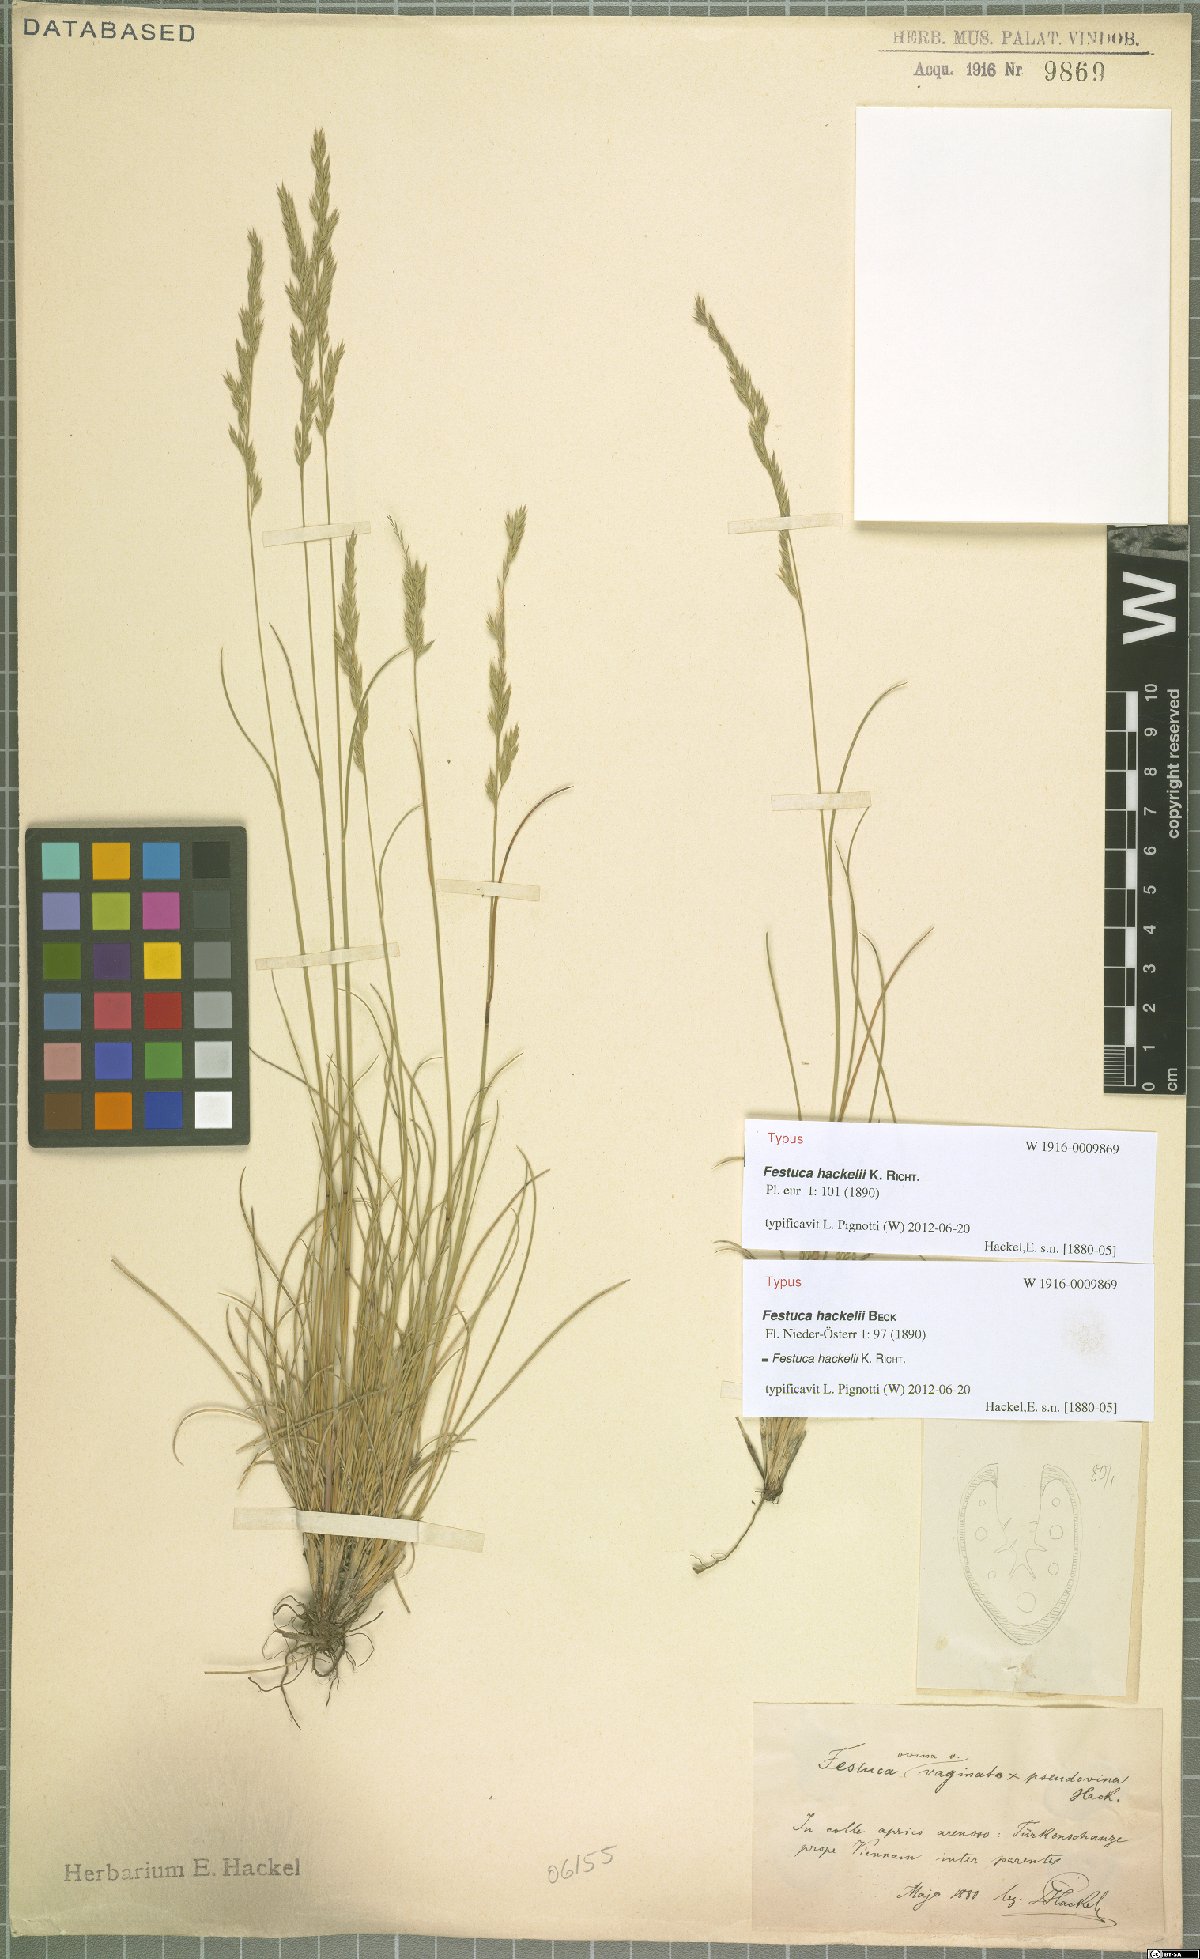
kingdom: Plantae
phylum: Tracheophyta
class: Liliopsida
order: Poales
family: Poaceae
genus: Festuca
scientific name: Festuca hackelii
